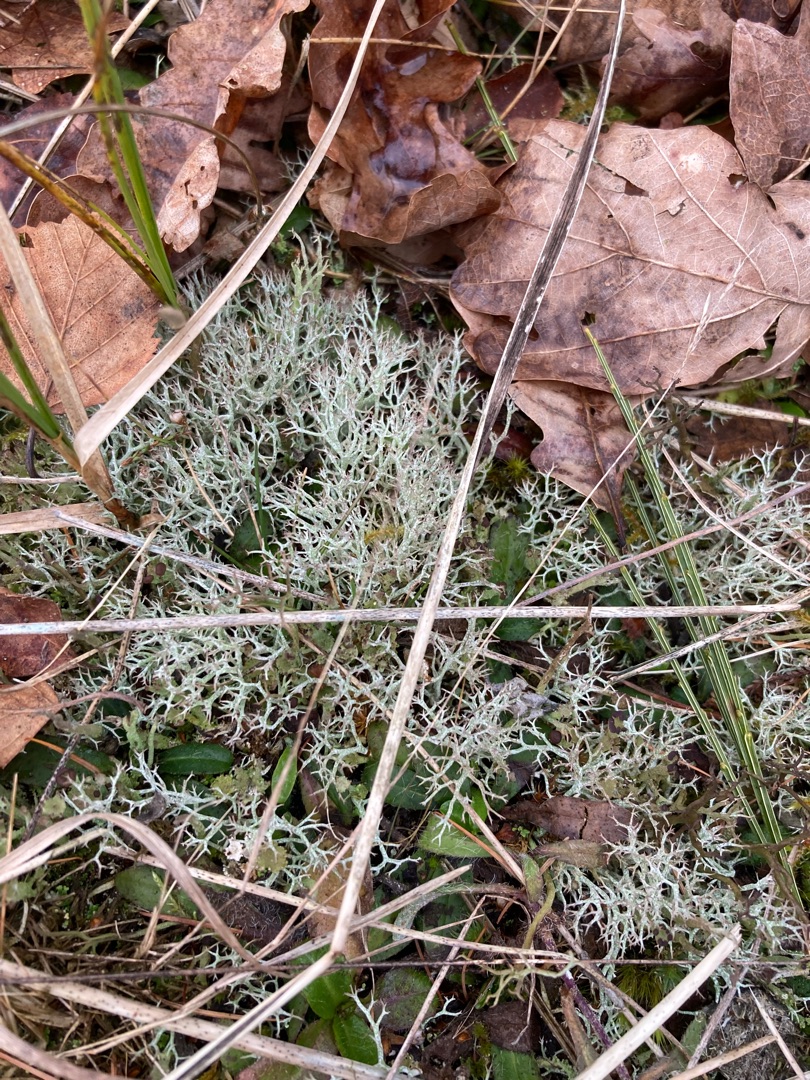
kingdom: Fungi
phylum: Ascomycota
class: Lecanoromycetes
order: Lecanorales
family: Cladoniaceae
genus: Cladonia
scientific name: Cladonia rangiformis
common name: Spættet bægerlav
